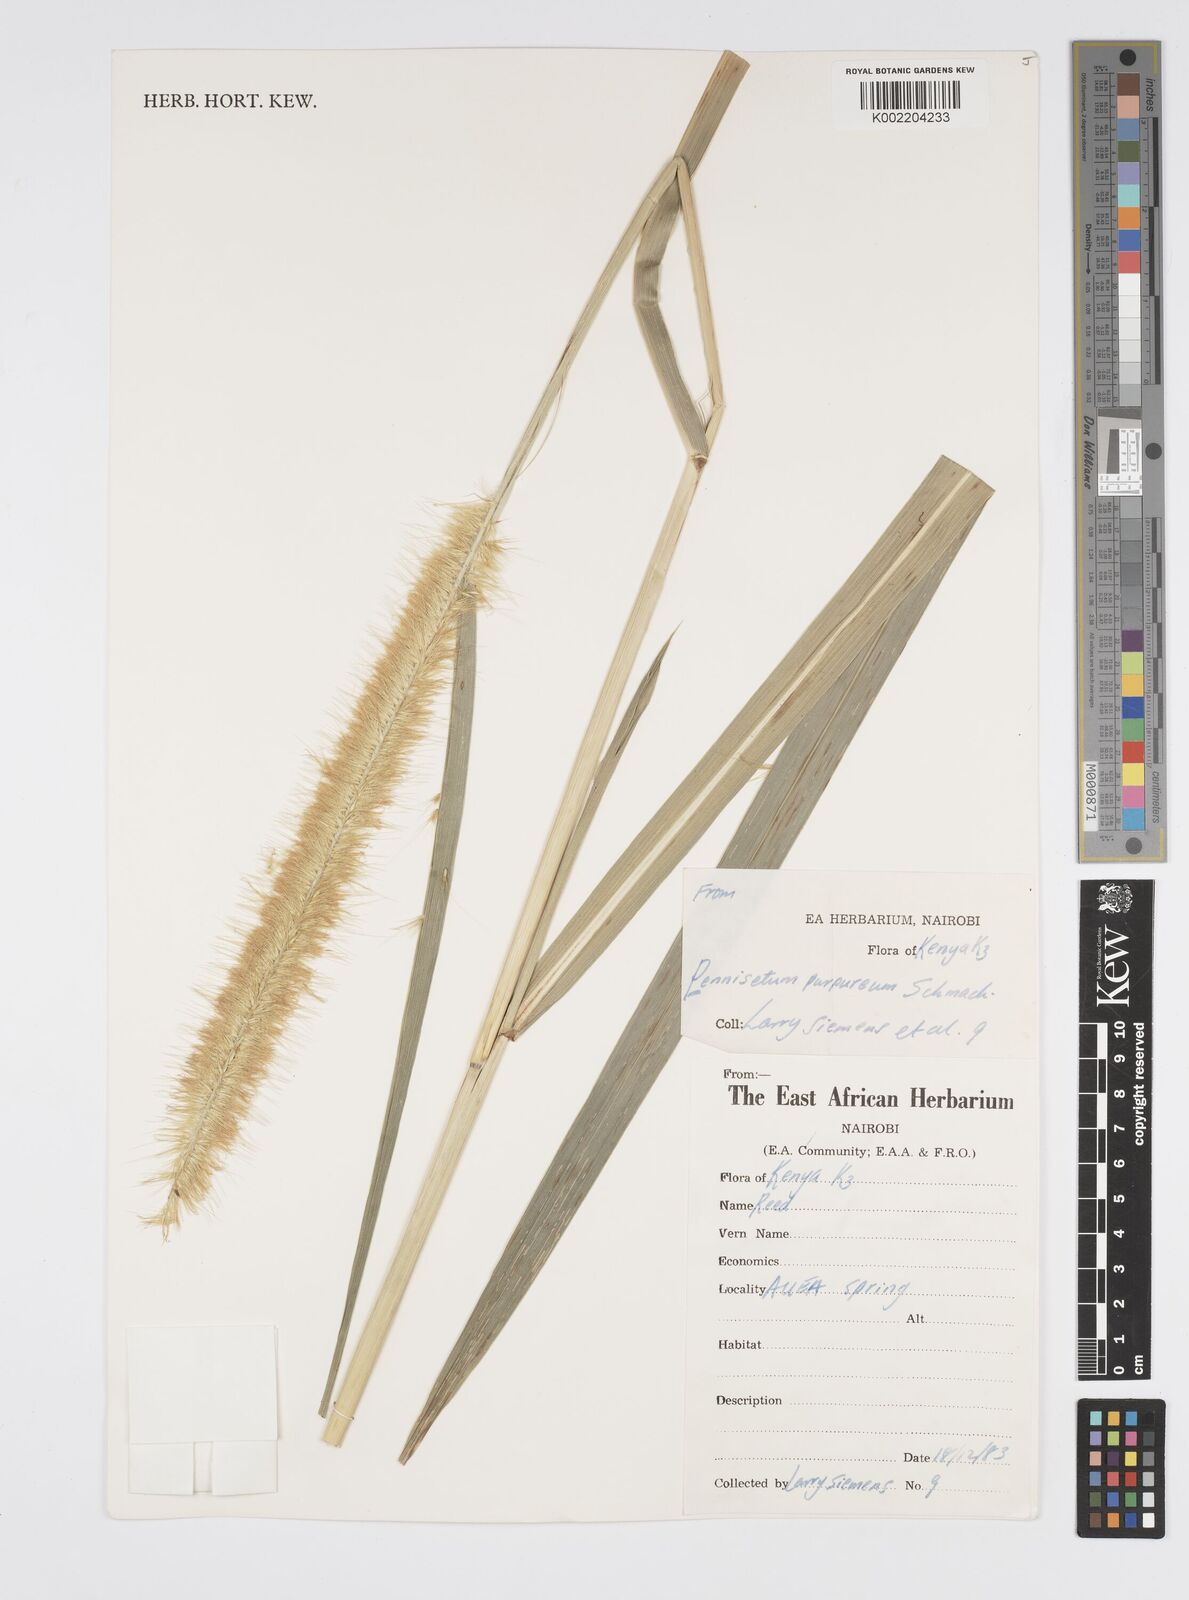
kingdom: Plantae
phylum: Tracheophyta
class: Liliopsida
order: Poales
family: Poaceae
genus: Setaria
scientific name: Setaria parviflora
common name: Knotroot bristle-grass
